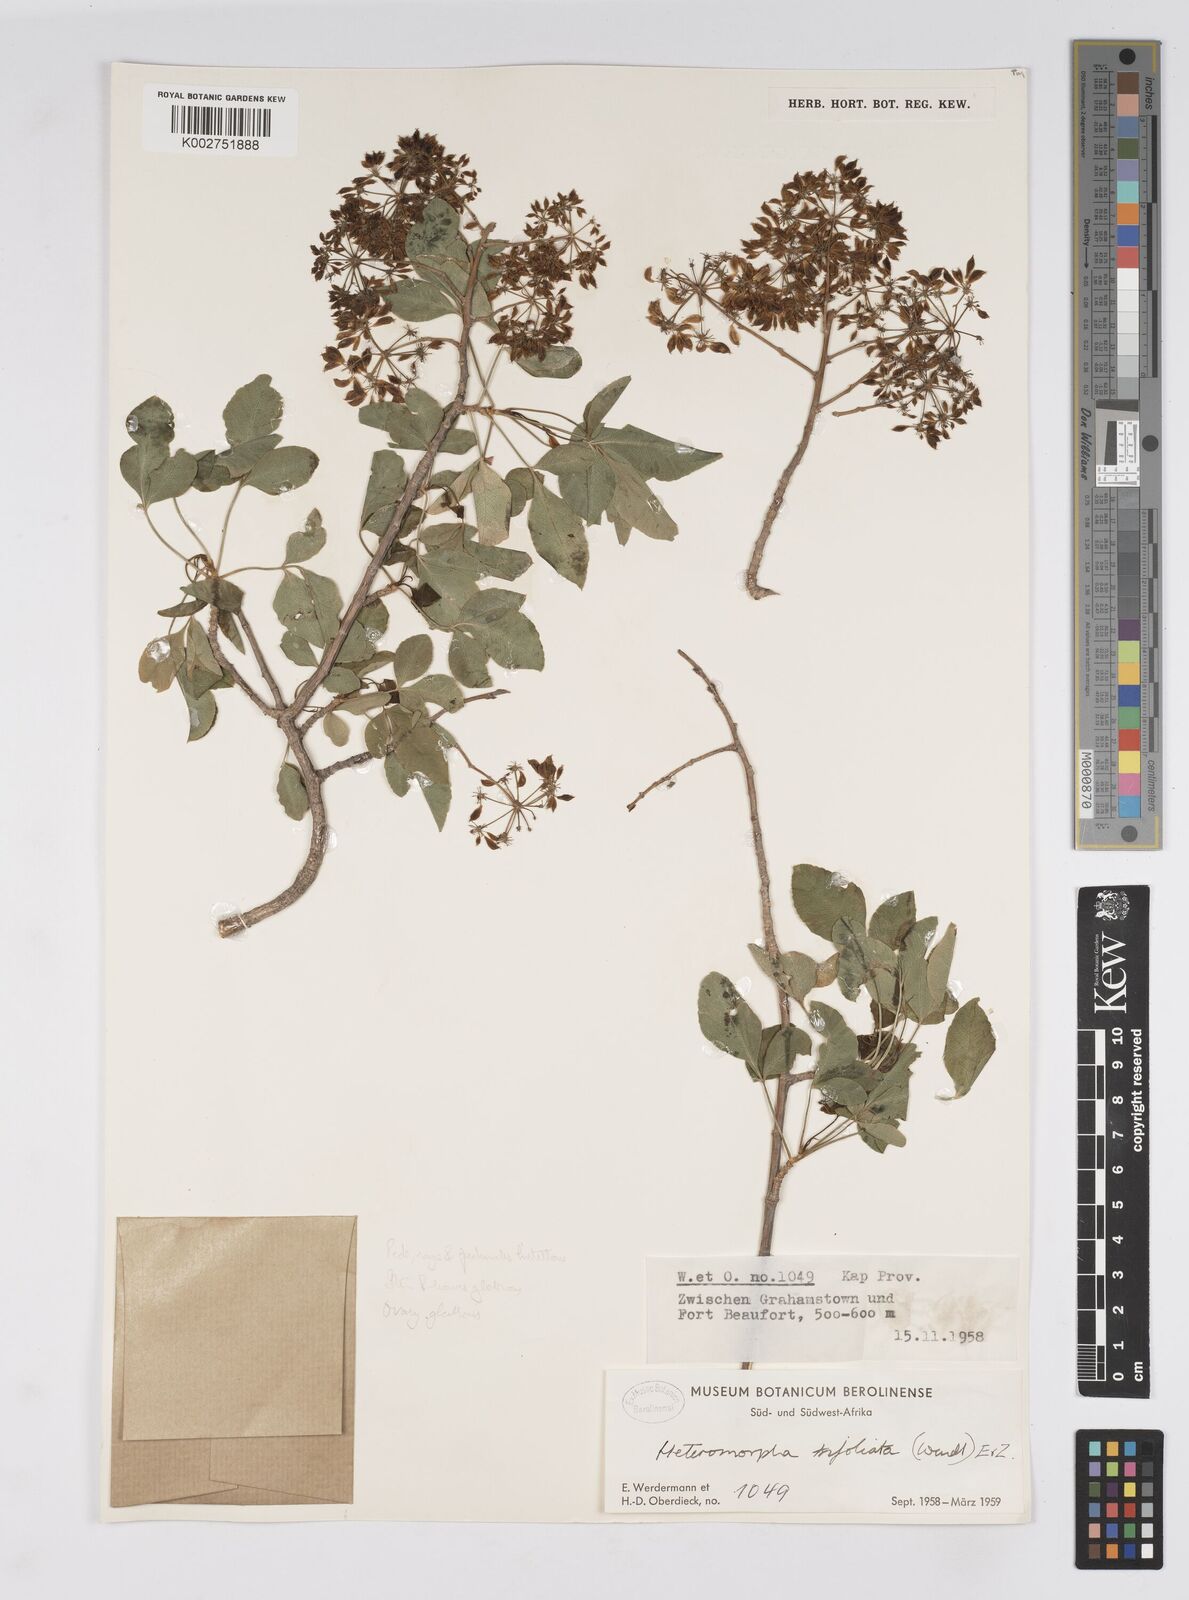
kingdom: Plantae
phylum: Tracheophyta
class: Magnoliopsida
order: Apiales
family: Apiaceae
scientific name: Apiaceae
